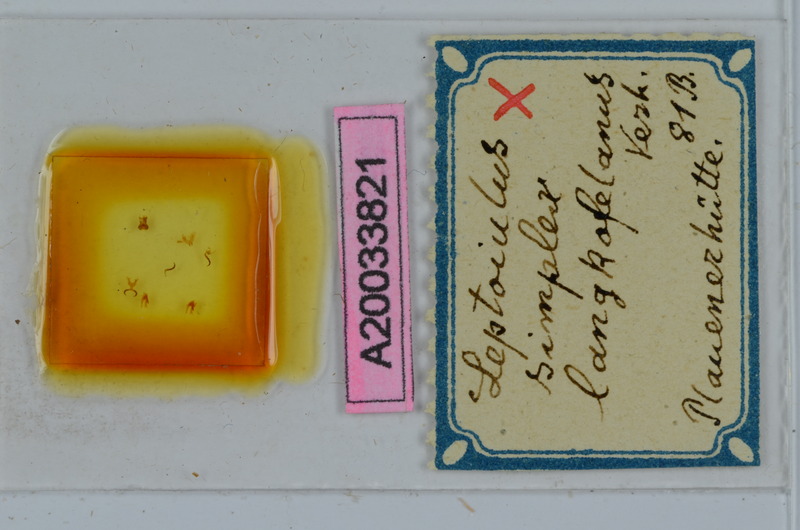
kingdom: Animalia
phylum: Arthropoda
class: Diplopoda
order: Julida
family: Julidae
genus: Leptoiulus
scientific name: Leptoiulus simplex
